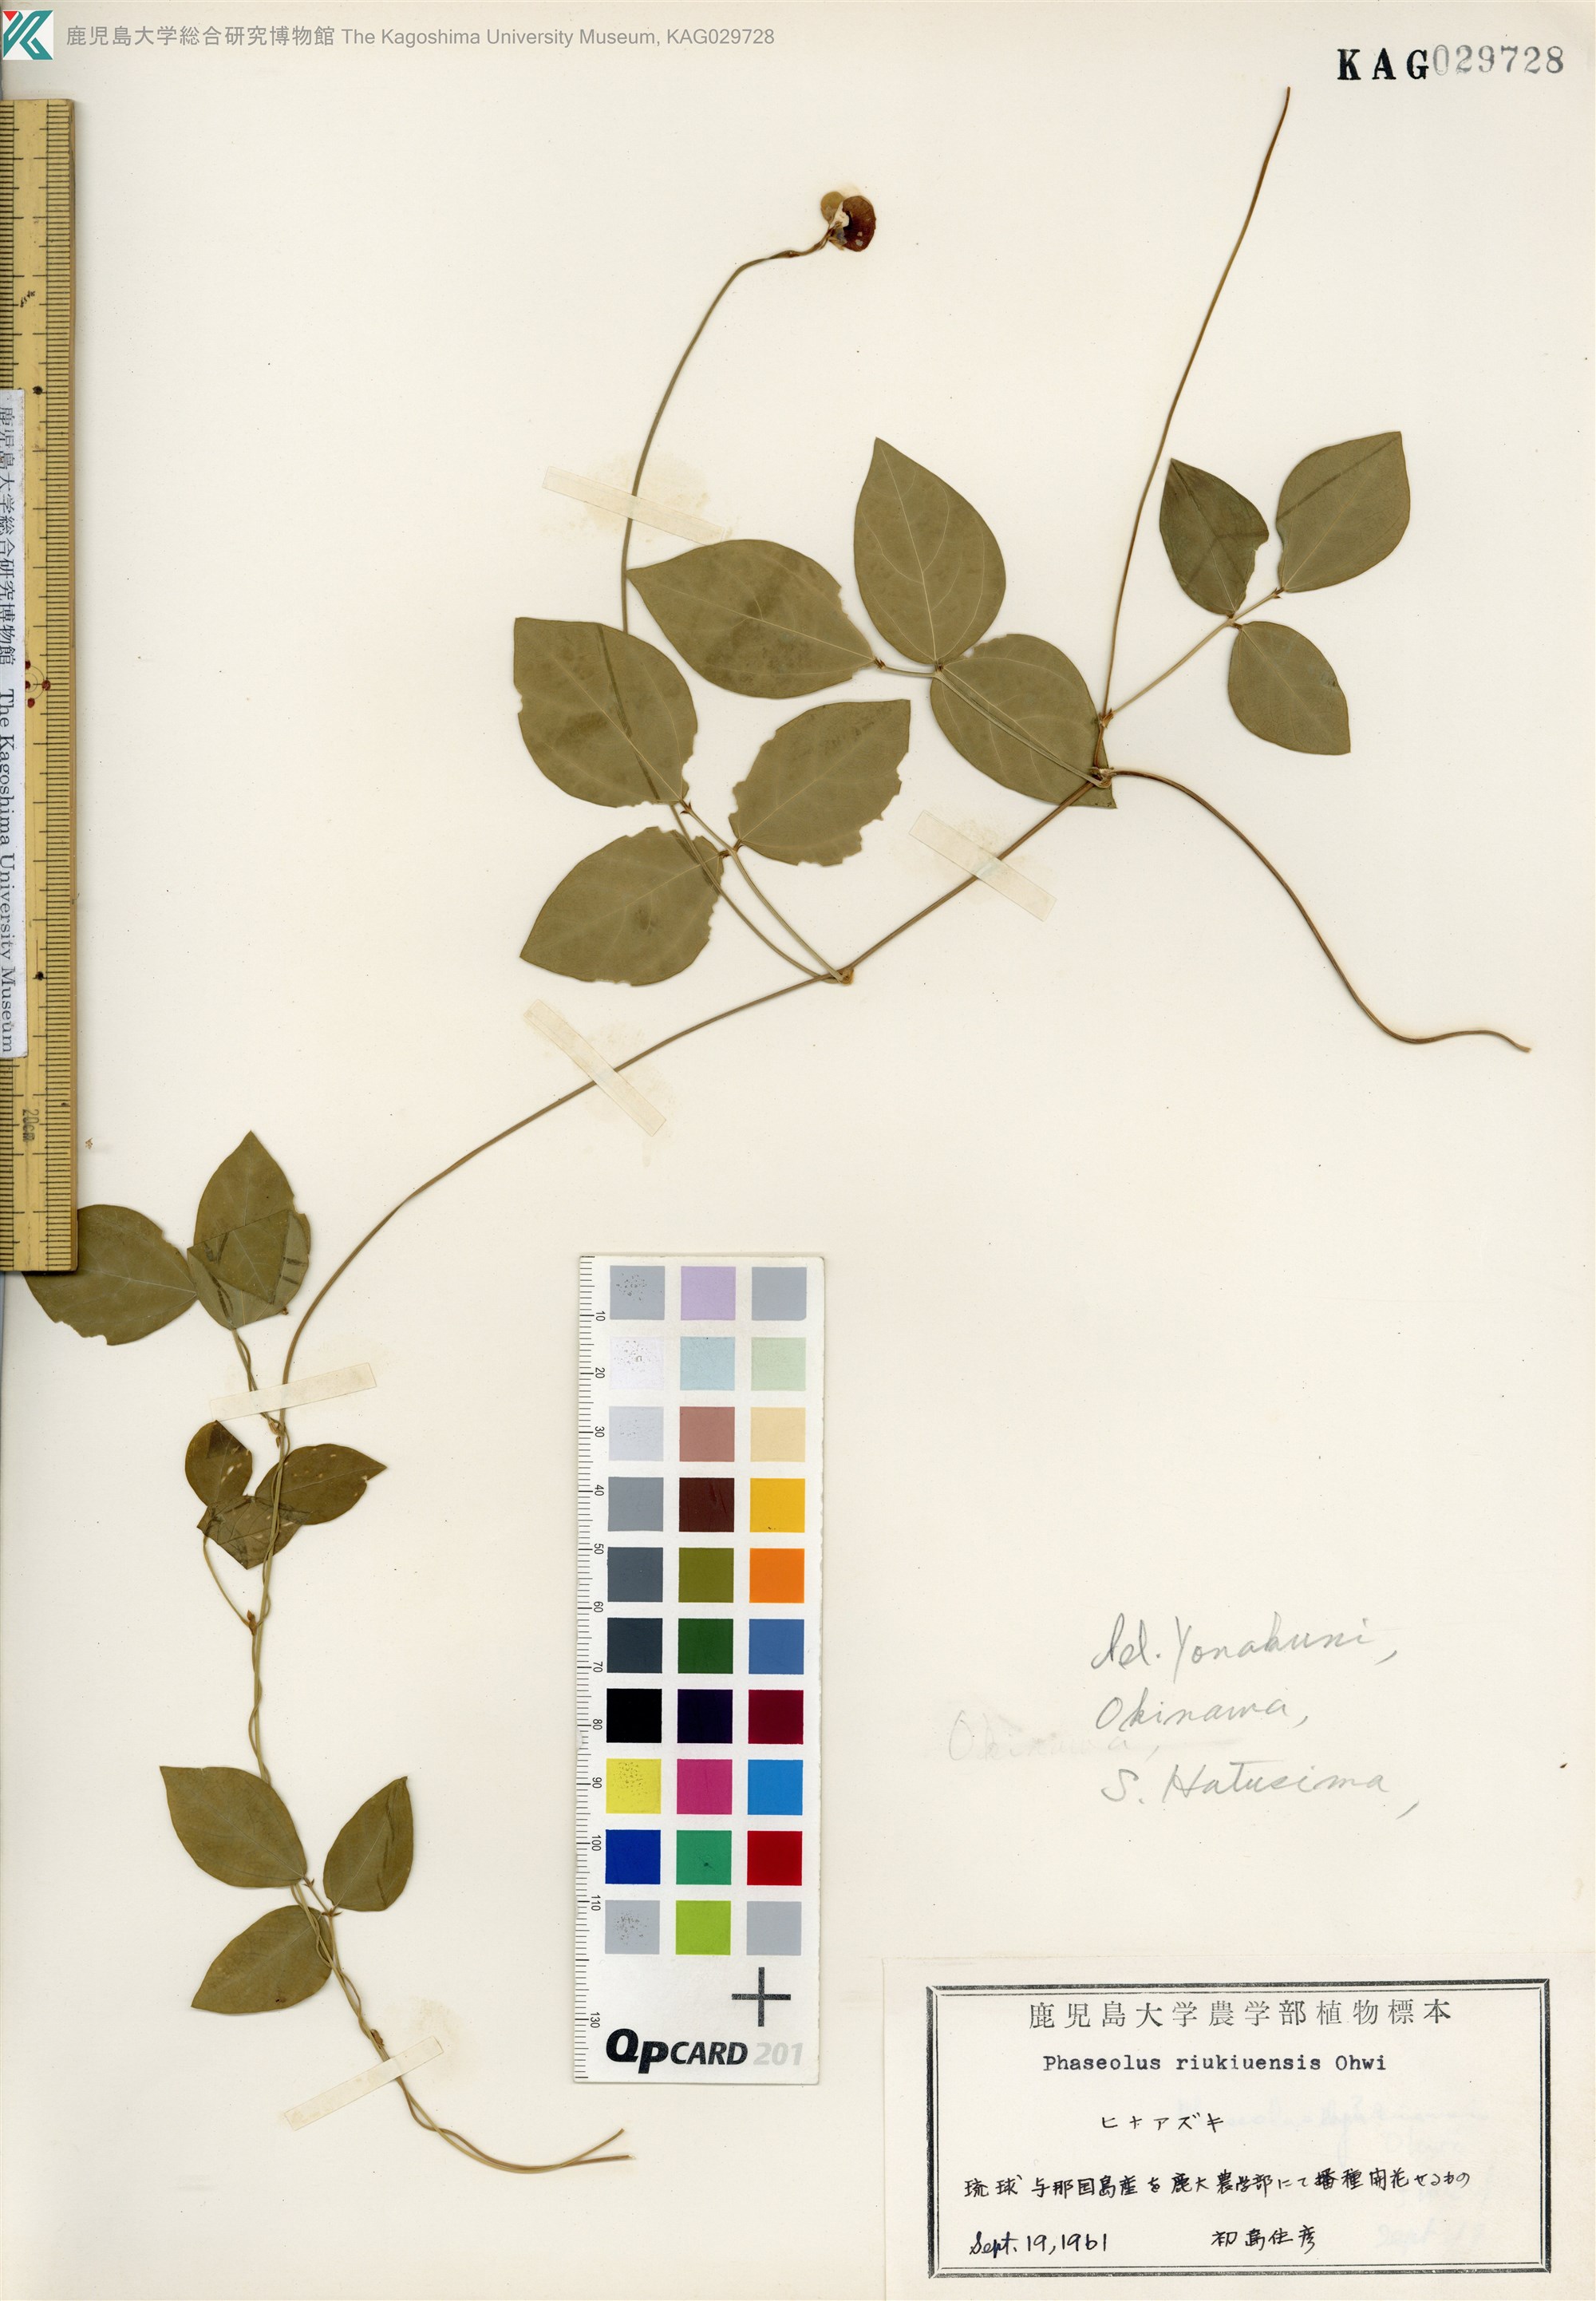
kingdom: Plantae
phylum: Tracheophyta
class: Magnoliopsida
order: Fabales
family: Fabaceae
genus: Vigna
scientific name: Vigna minima
